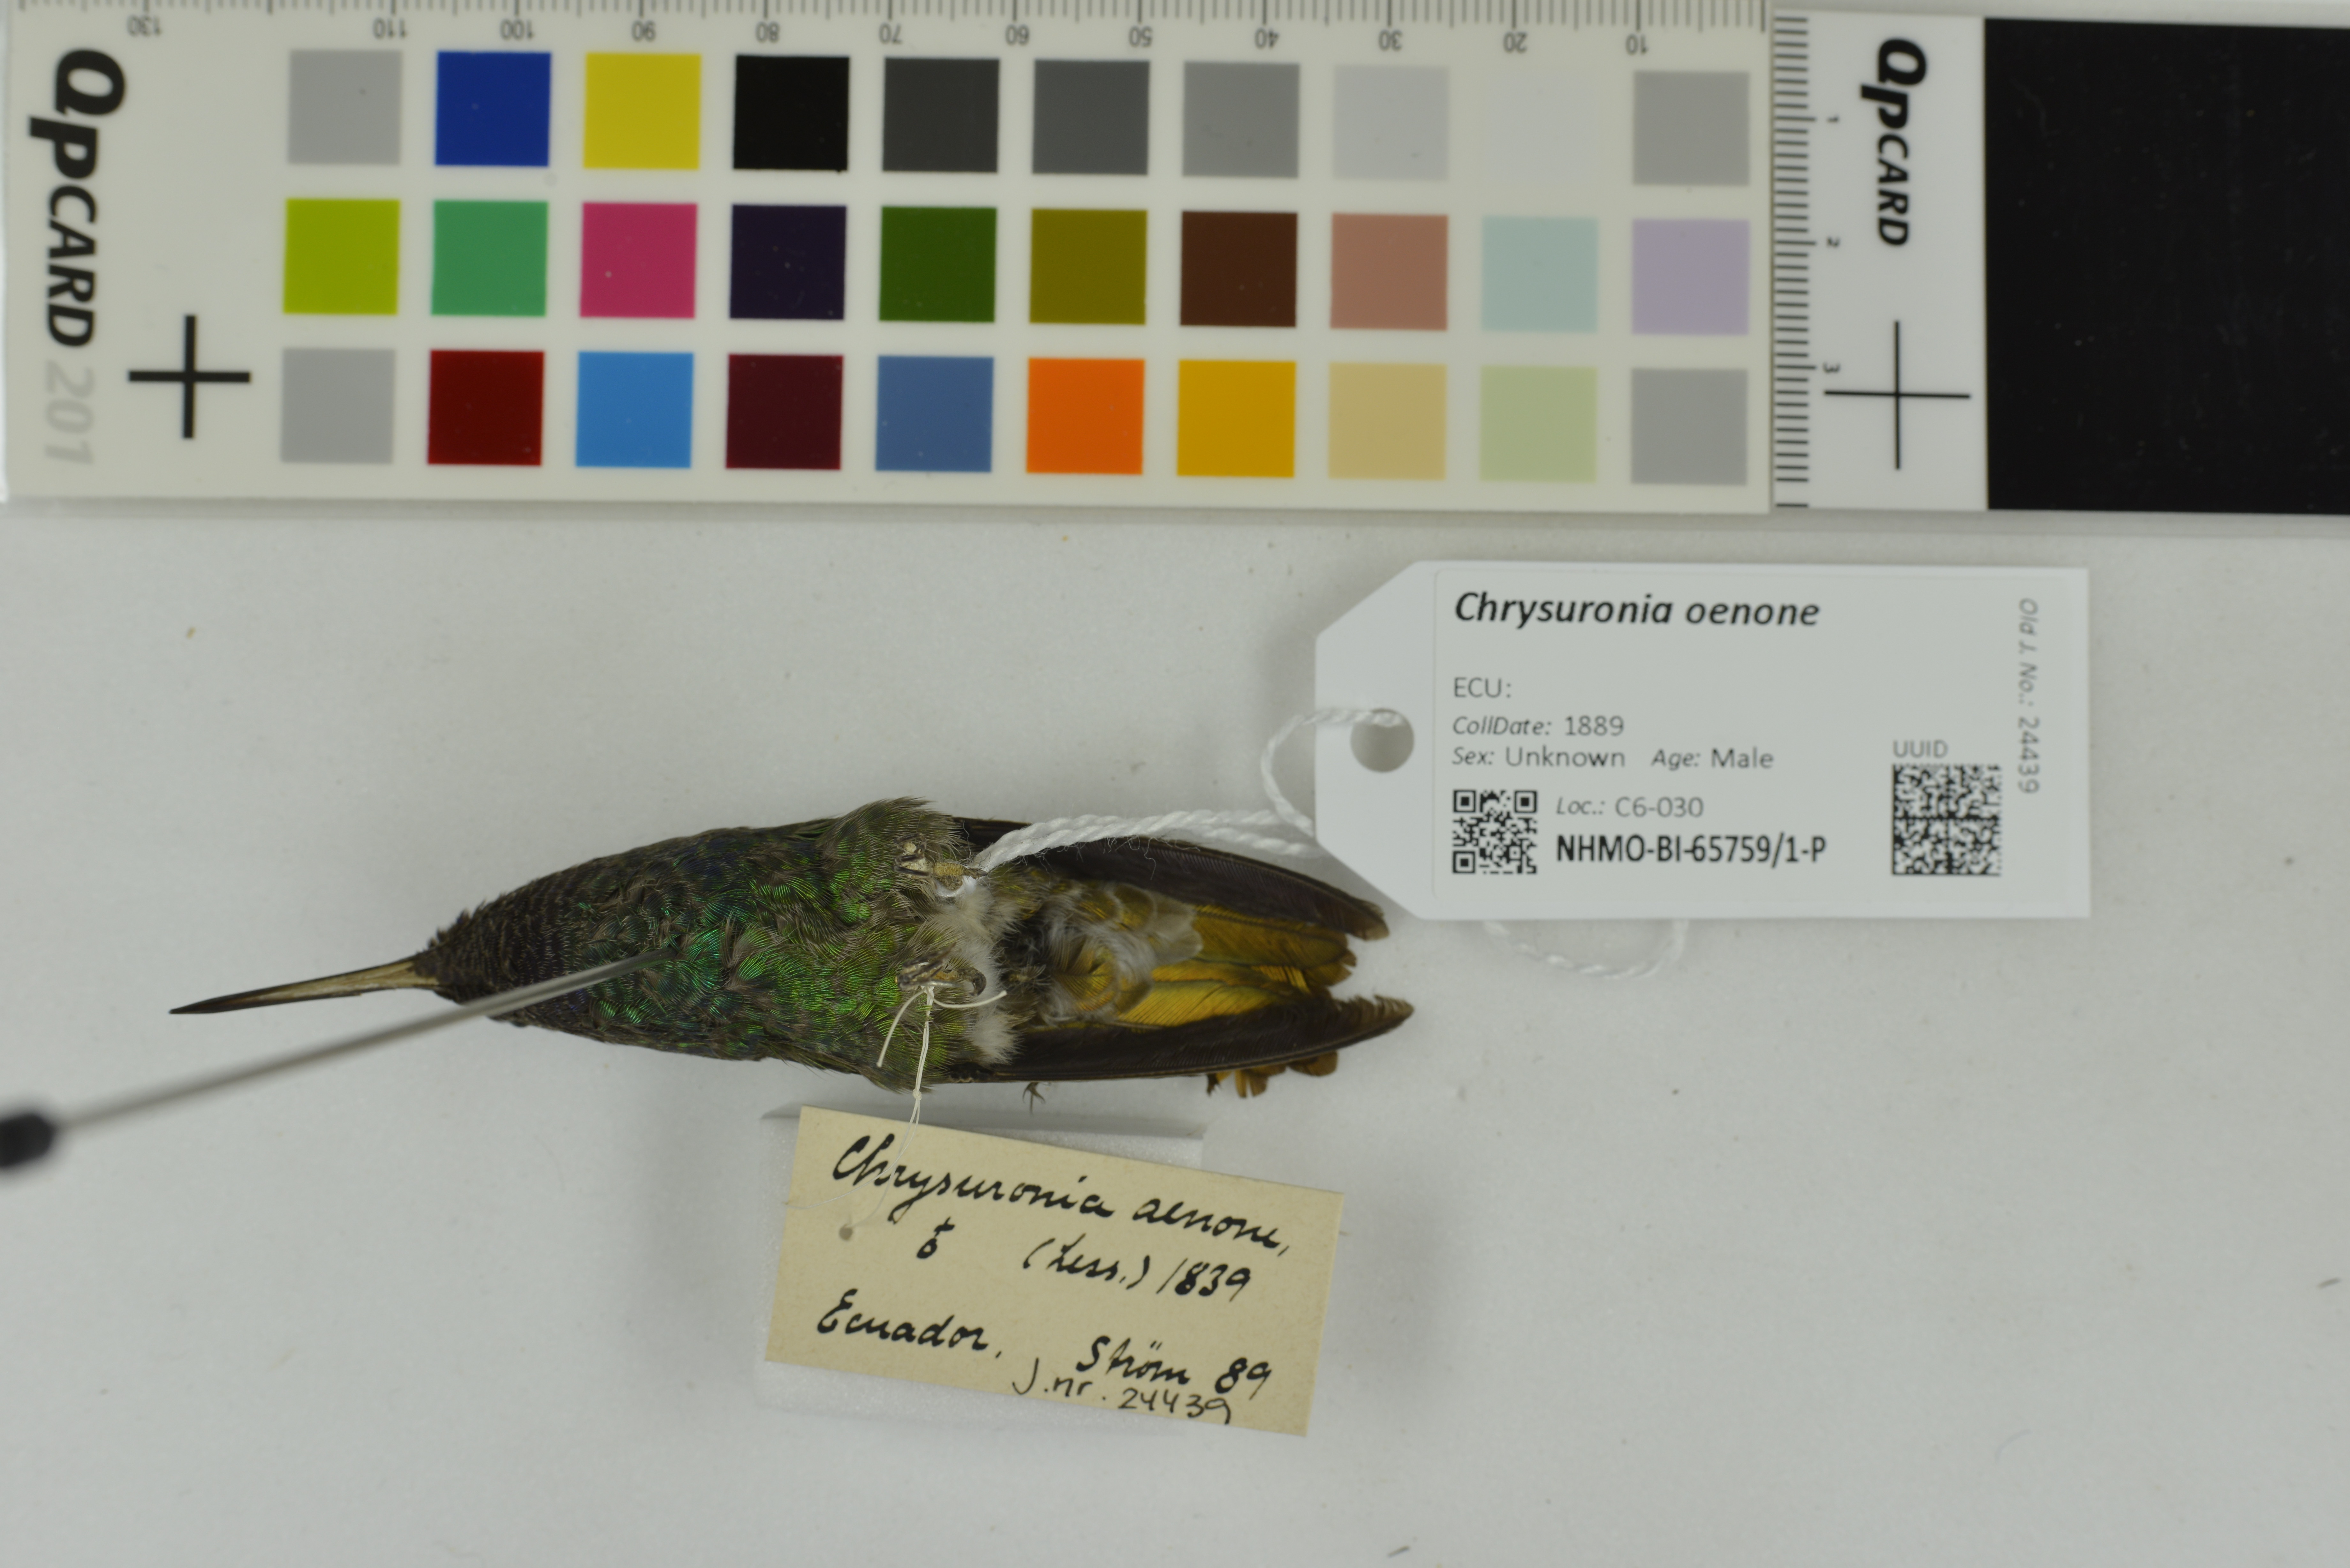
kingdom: Animalia
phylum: Chordata
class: Aves
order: Apodiformes
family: Trochilidae
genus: Chrysuronia
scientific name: Chrysuronia oenone
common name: Golden-tailed sapphire
